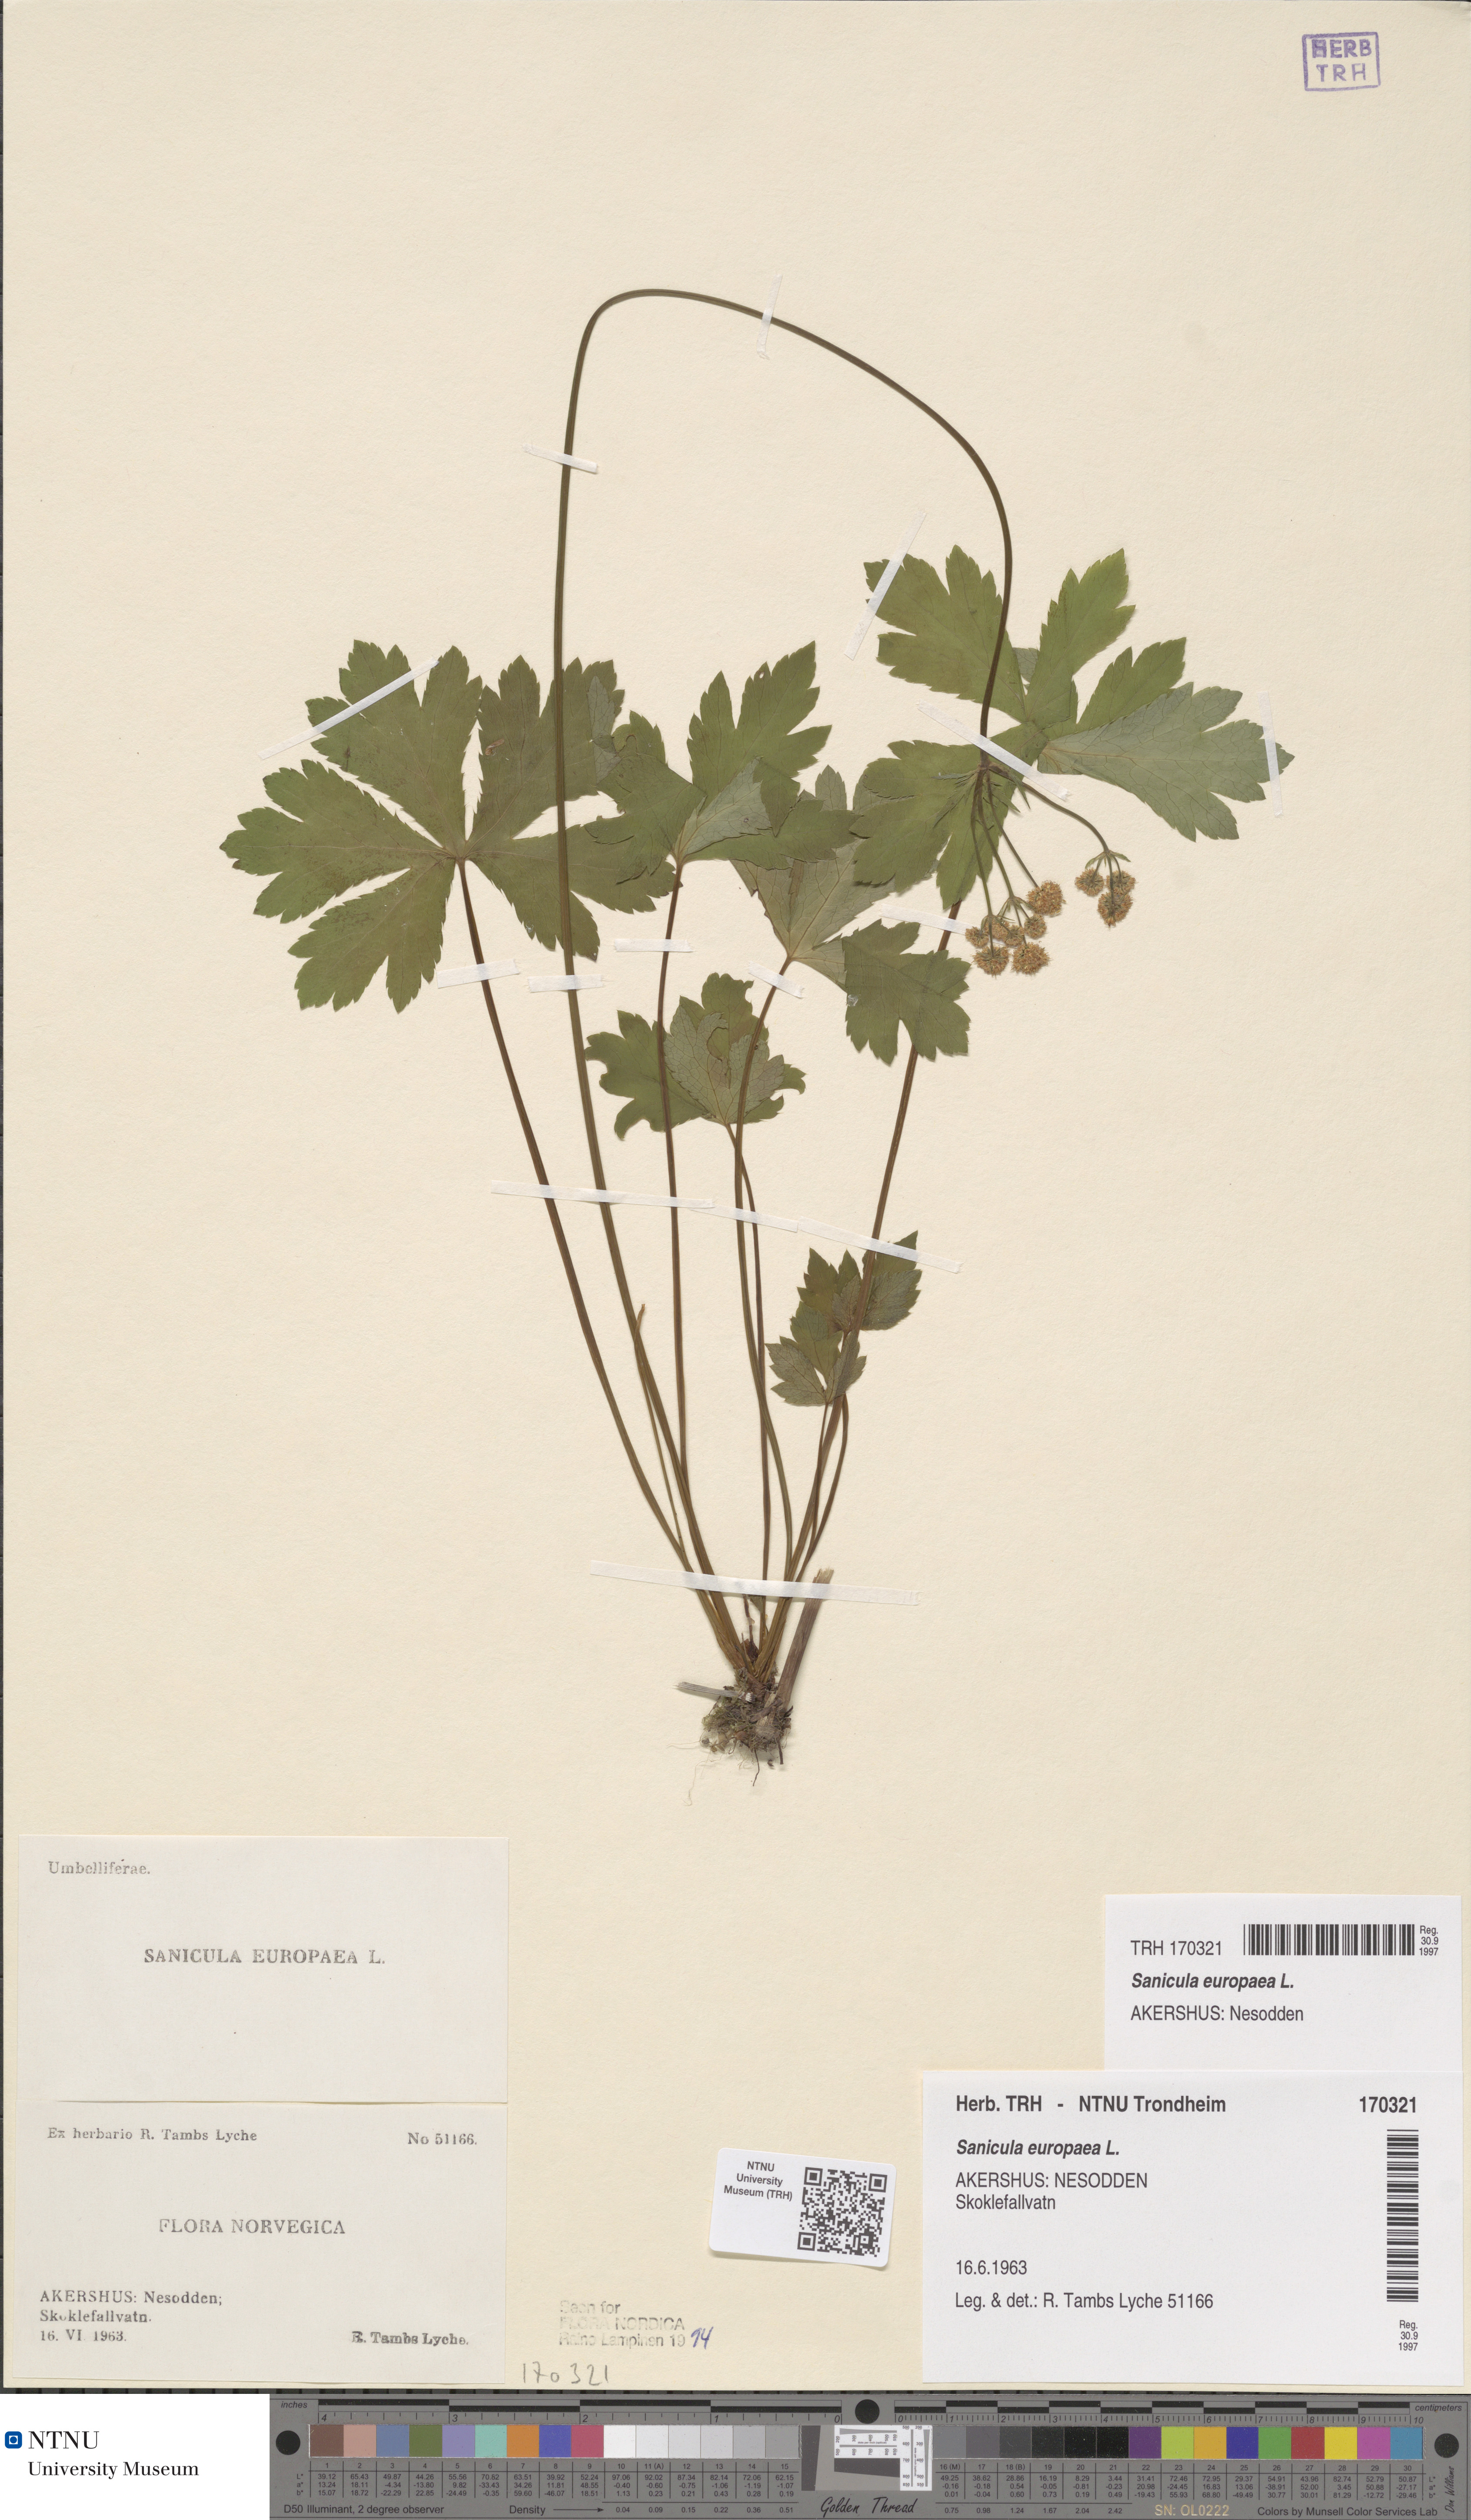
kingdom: Plantae
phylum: Tracheophyta
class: Magnoliopsida
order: Apiales
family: Apiaceae
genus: Sanicula
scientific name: Sanicula europaea
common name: Sanicle
